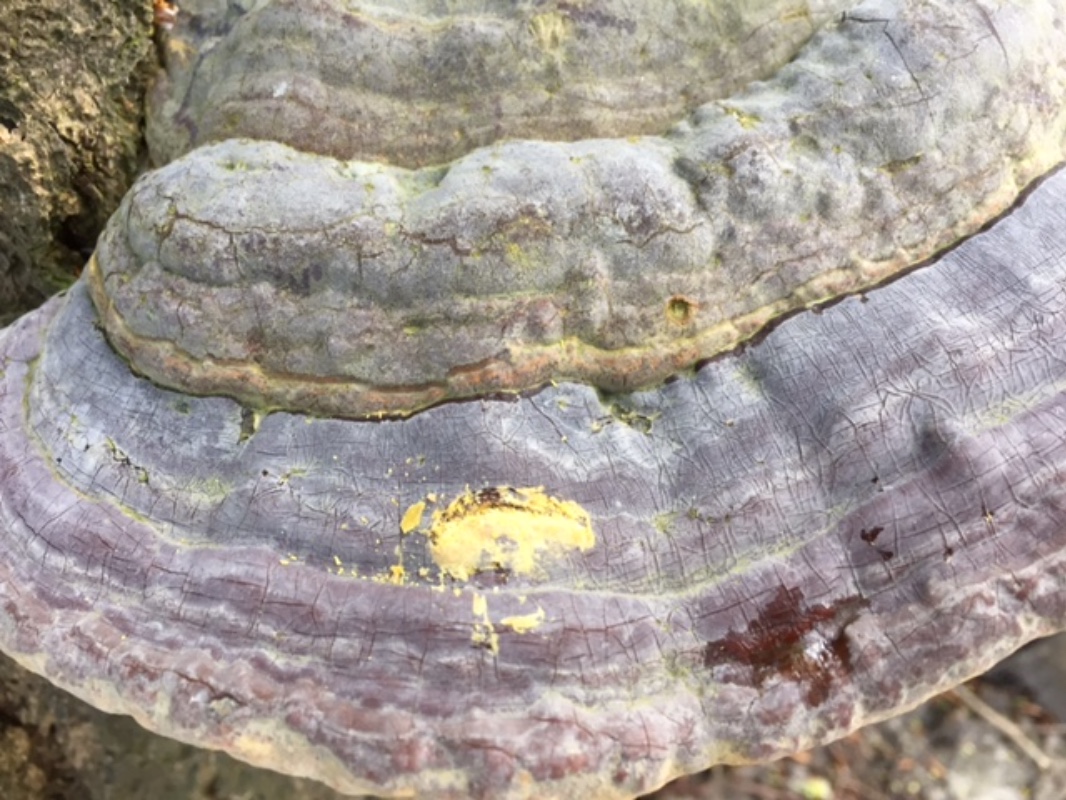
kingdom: Fungi
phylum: Basidiomycota
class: Agaricomycetes
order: Polyporales
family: Polyporaceae
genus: Ganoderma
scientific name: Ganoderma pfeifferi
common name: kobberrød lakporesvamp
